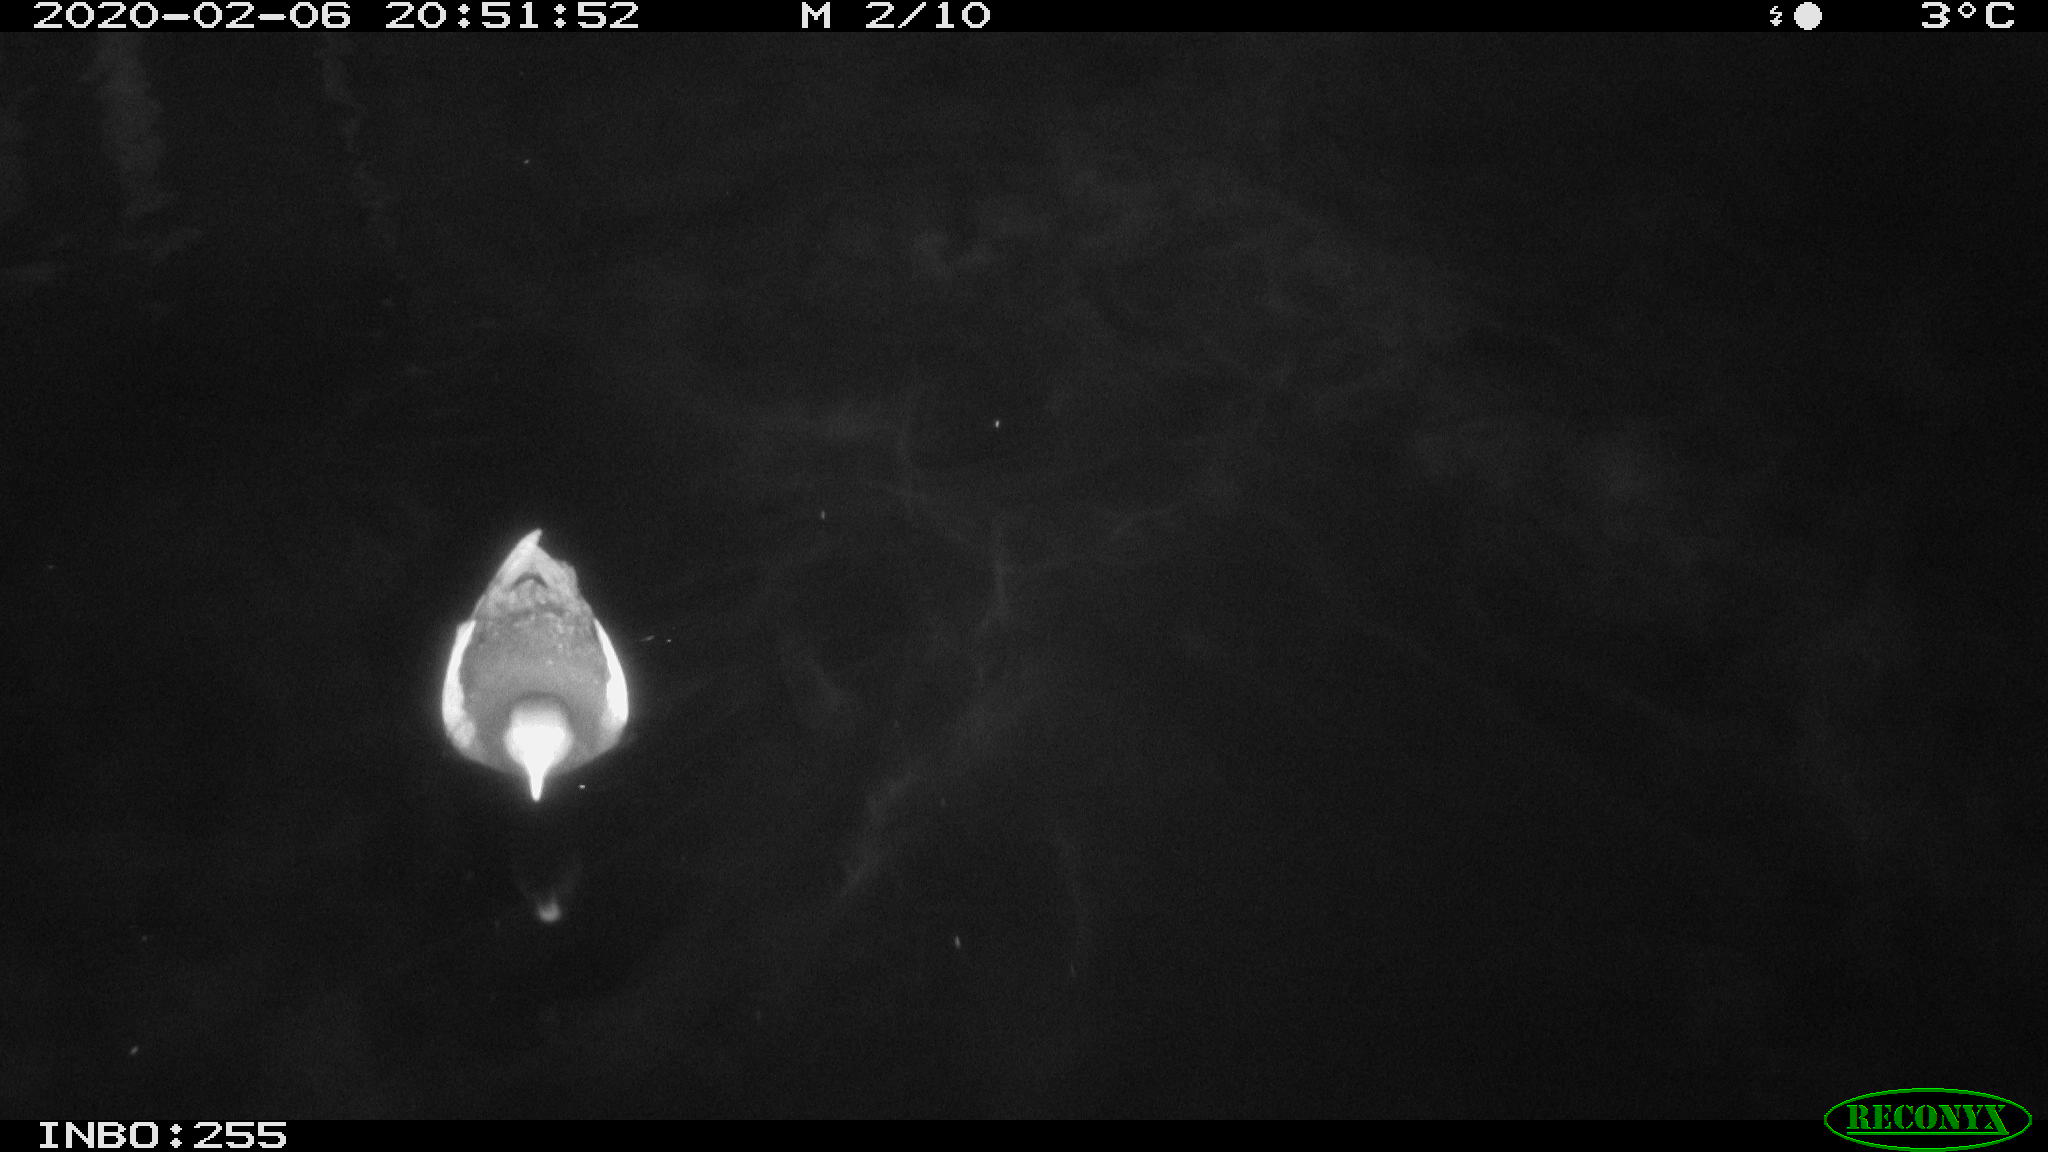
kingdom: Animalia
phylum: Chordata
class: Aves
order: Gruiformes
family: Rallidae
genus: Gallinula
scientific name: Gallinula chloropus
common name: Common moorhen
